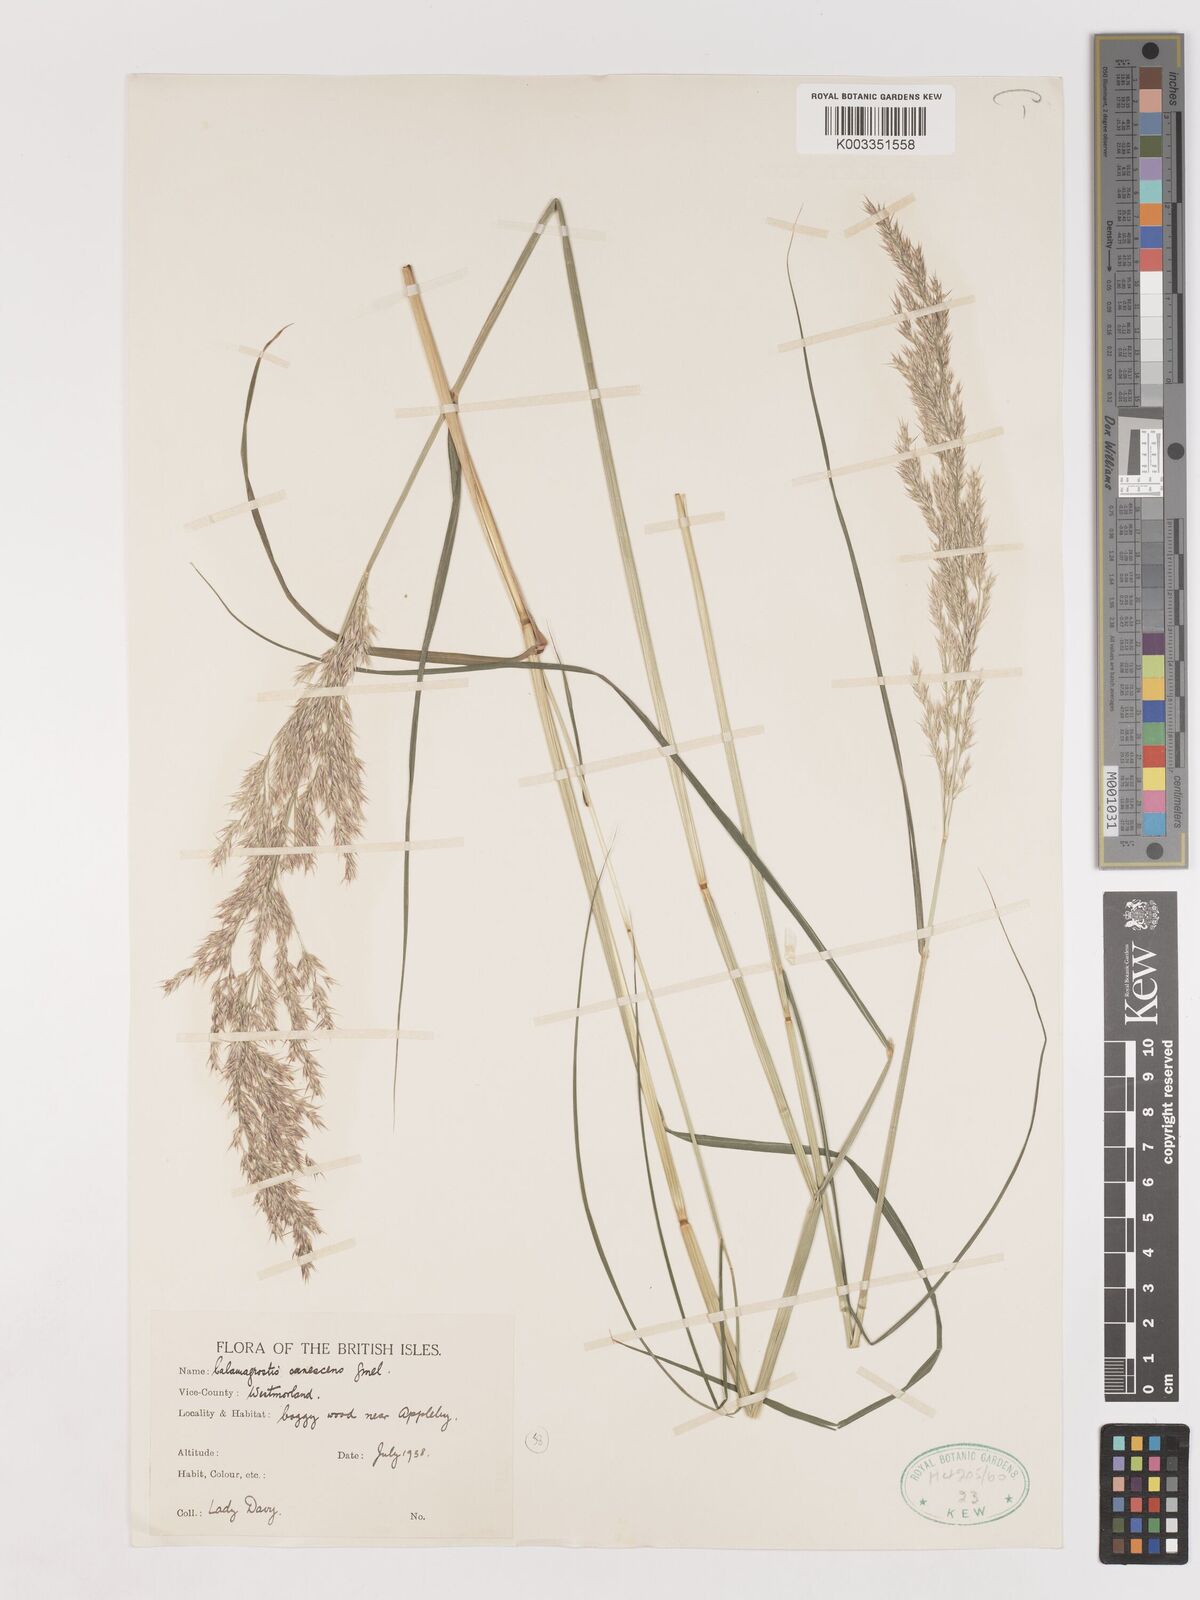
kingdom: Plantae
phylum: Tracheophyta
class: Liliopsida
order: Poales
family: Poaceae
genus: Calamagrostis
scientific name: Calamagrostis canescens
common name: Purple small-reed
